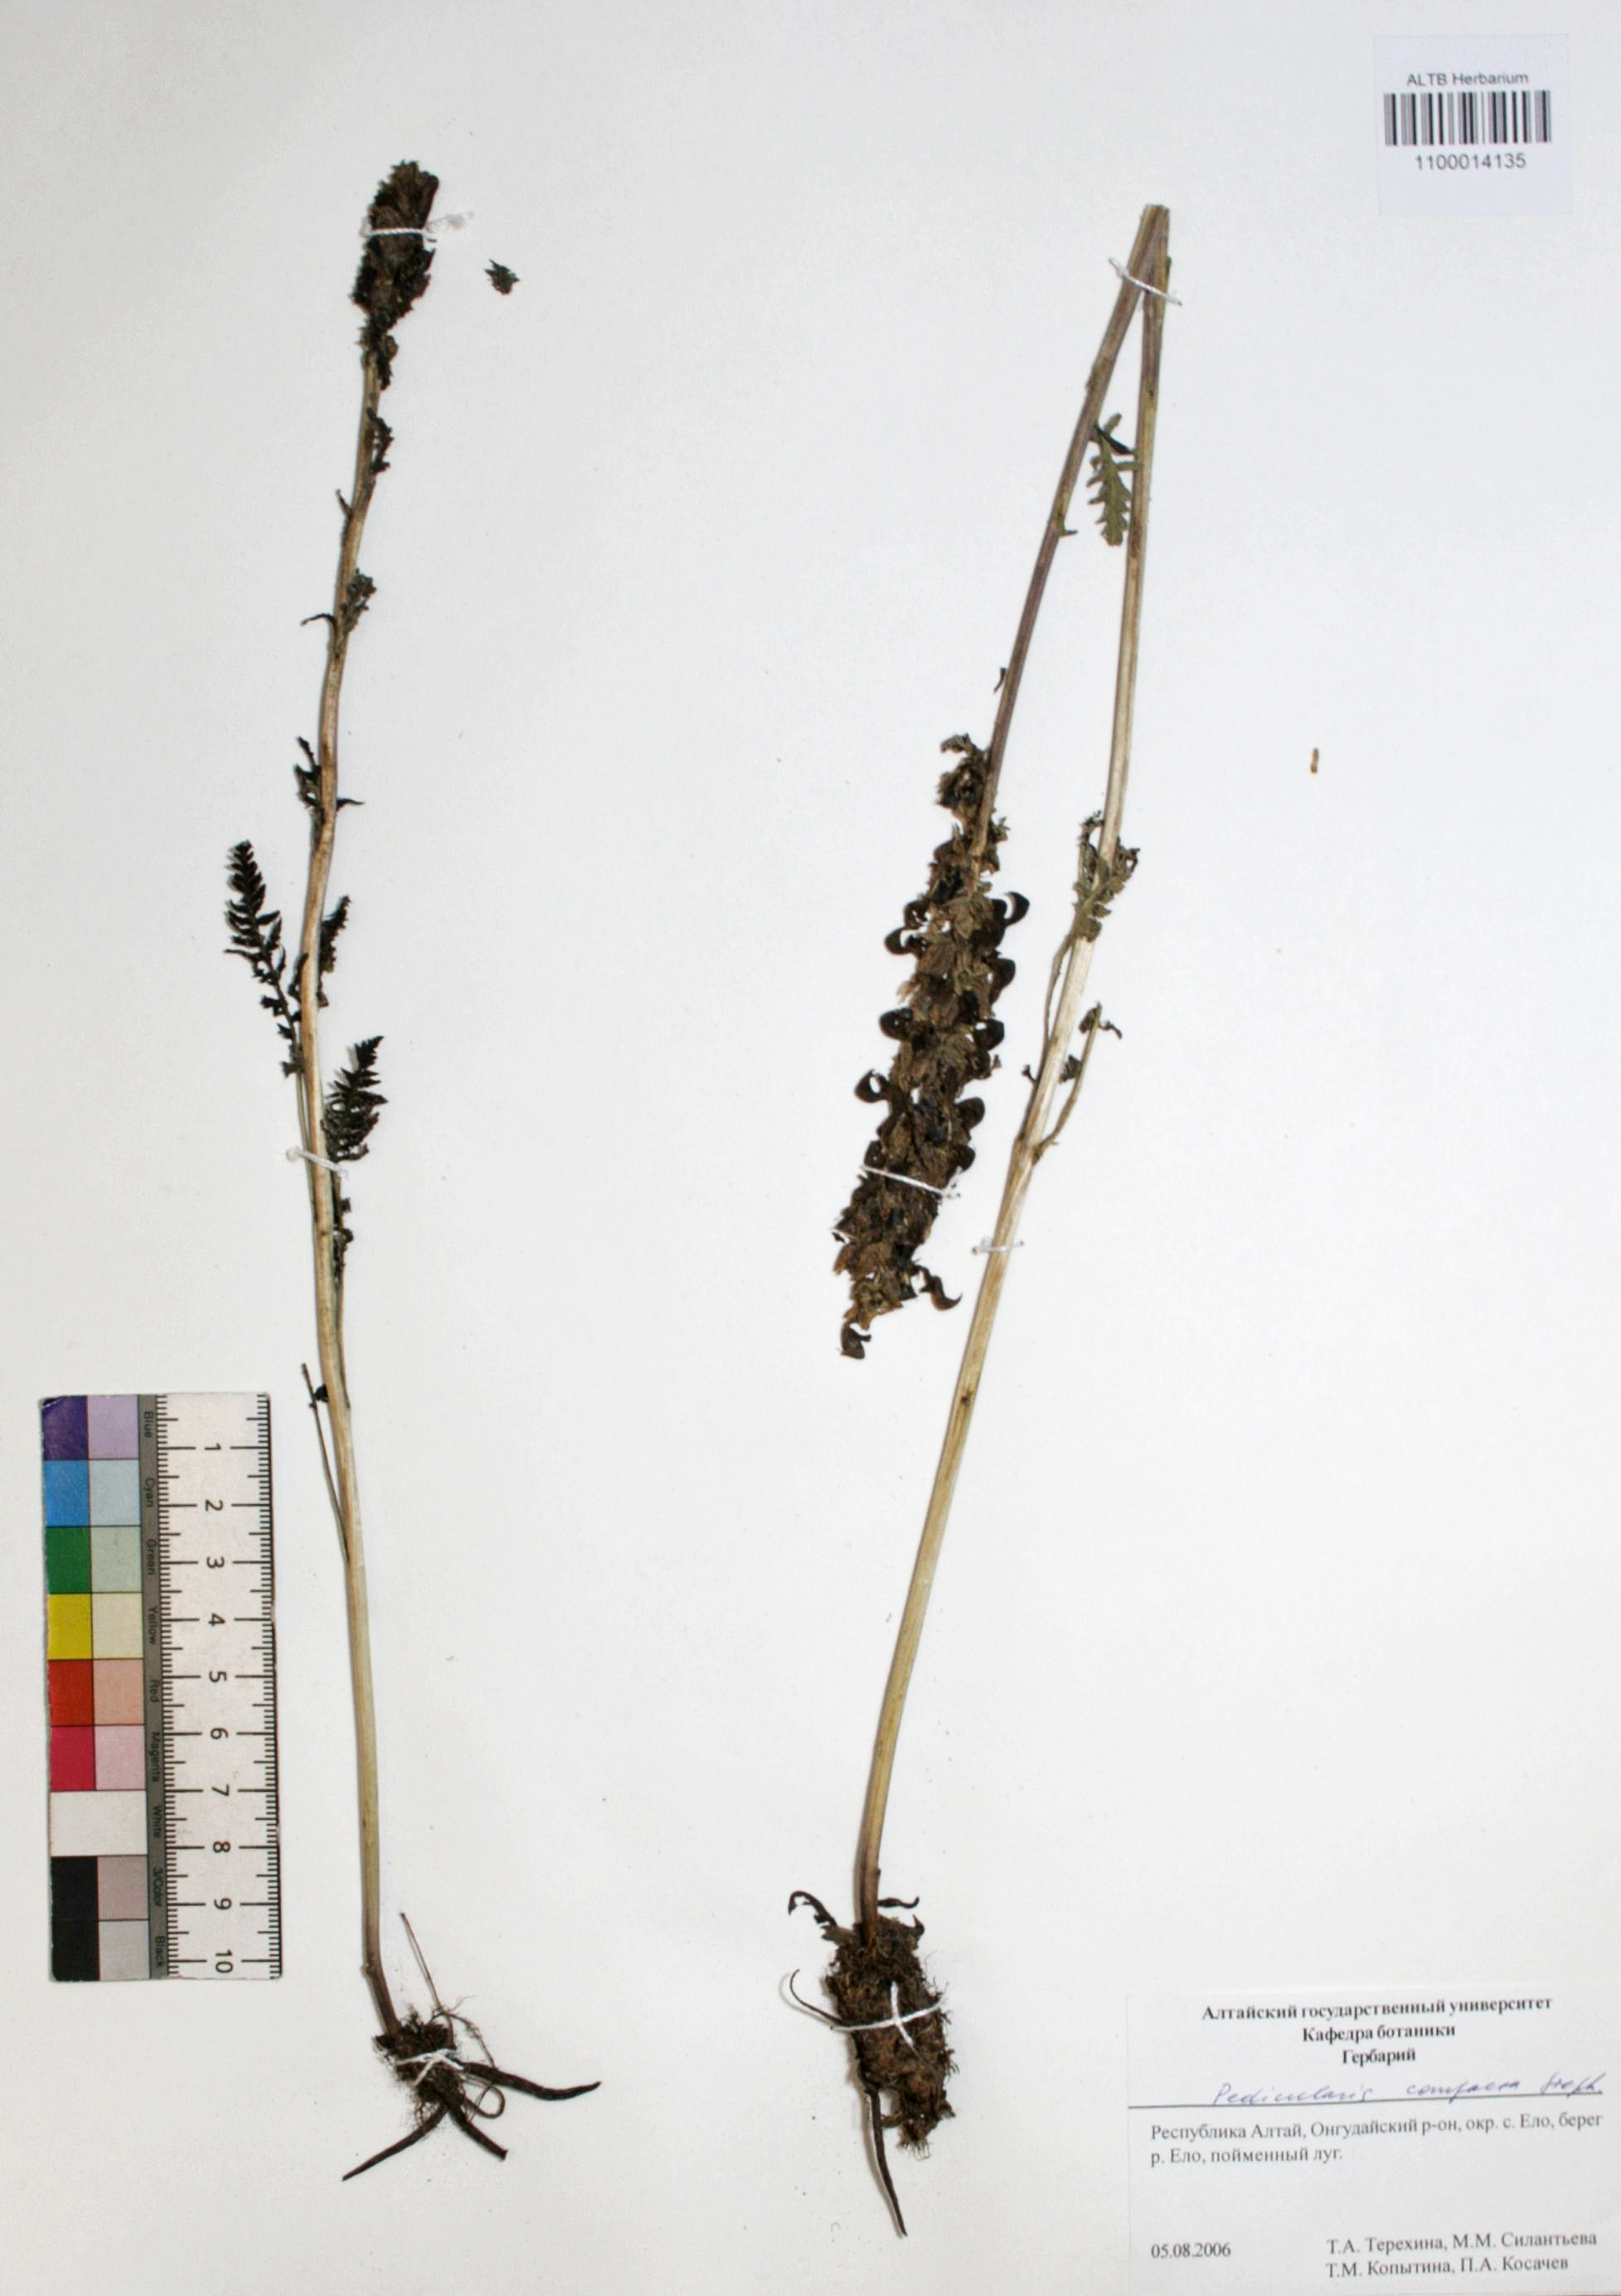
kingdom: Plantae
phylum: Tracheophyta
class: Magnoliopsida
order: Lamiales
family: Orobanchaceae
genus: Pedicularis
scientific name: Pedicularis compacta
